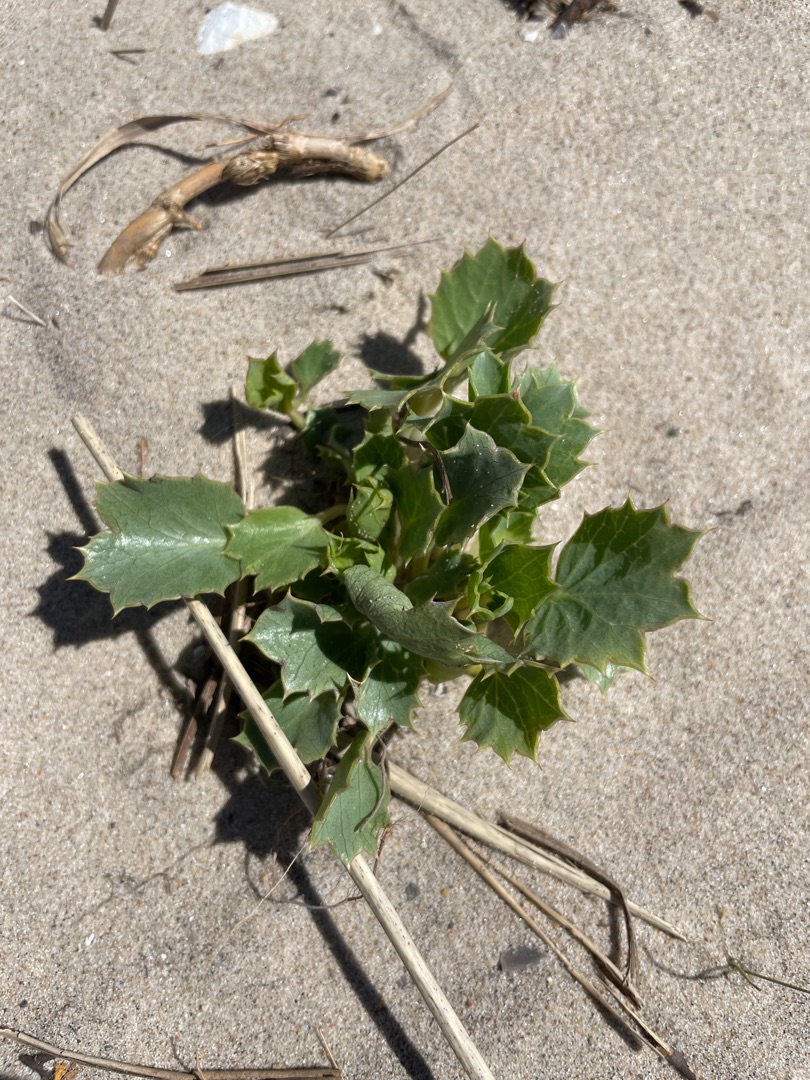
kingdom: Plantae
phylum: Tracheophyta
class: Magnoliopsida
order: Apiales
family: Apiaceae
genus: Eryngium
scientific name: Eryngium maritimum
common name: Strand-mandstro
